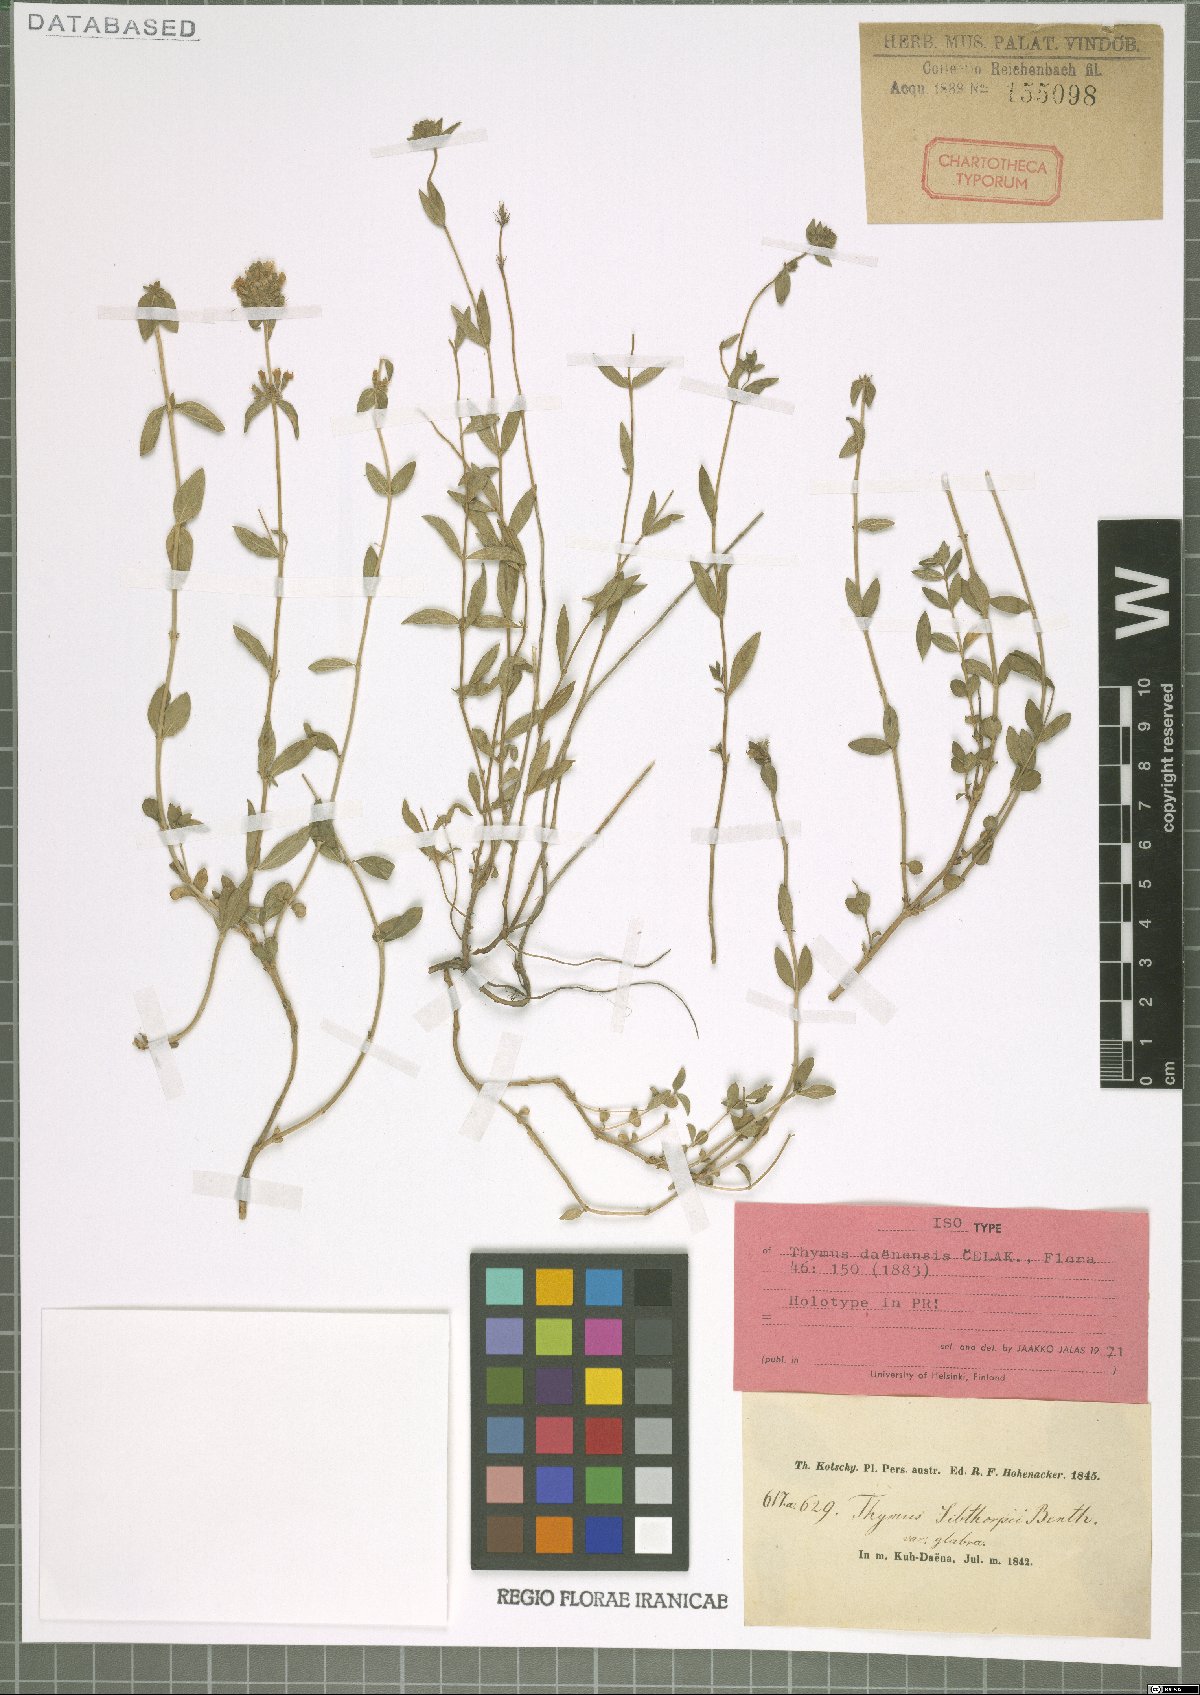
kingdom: Plantae
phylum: Tracheophyta
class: Magnoliopsida
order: Lamiales
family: Lamiaceae
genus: Thymus
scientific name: Thymus daenensis
